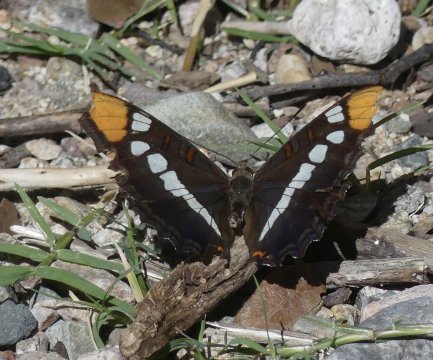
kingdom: Animalia
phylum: Arthropoda
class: Insecta
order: Lepidoptera
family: Nymphalidae
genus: Limenitis
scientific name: Limenitis bredowii
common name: Arizona Sister
